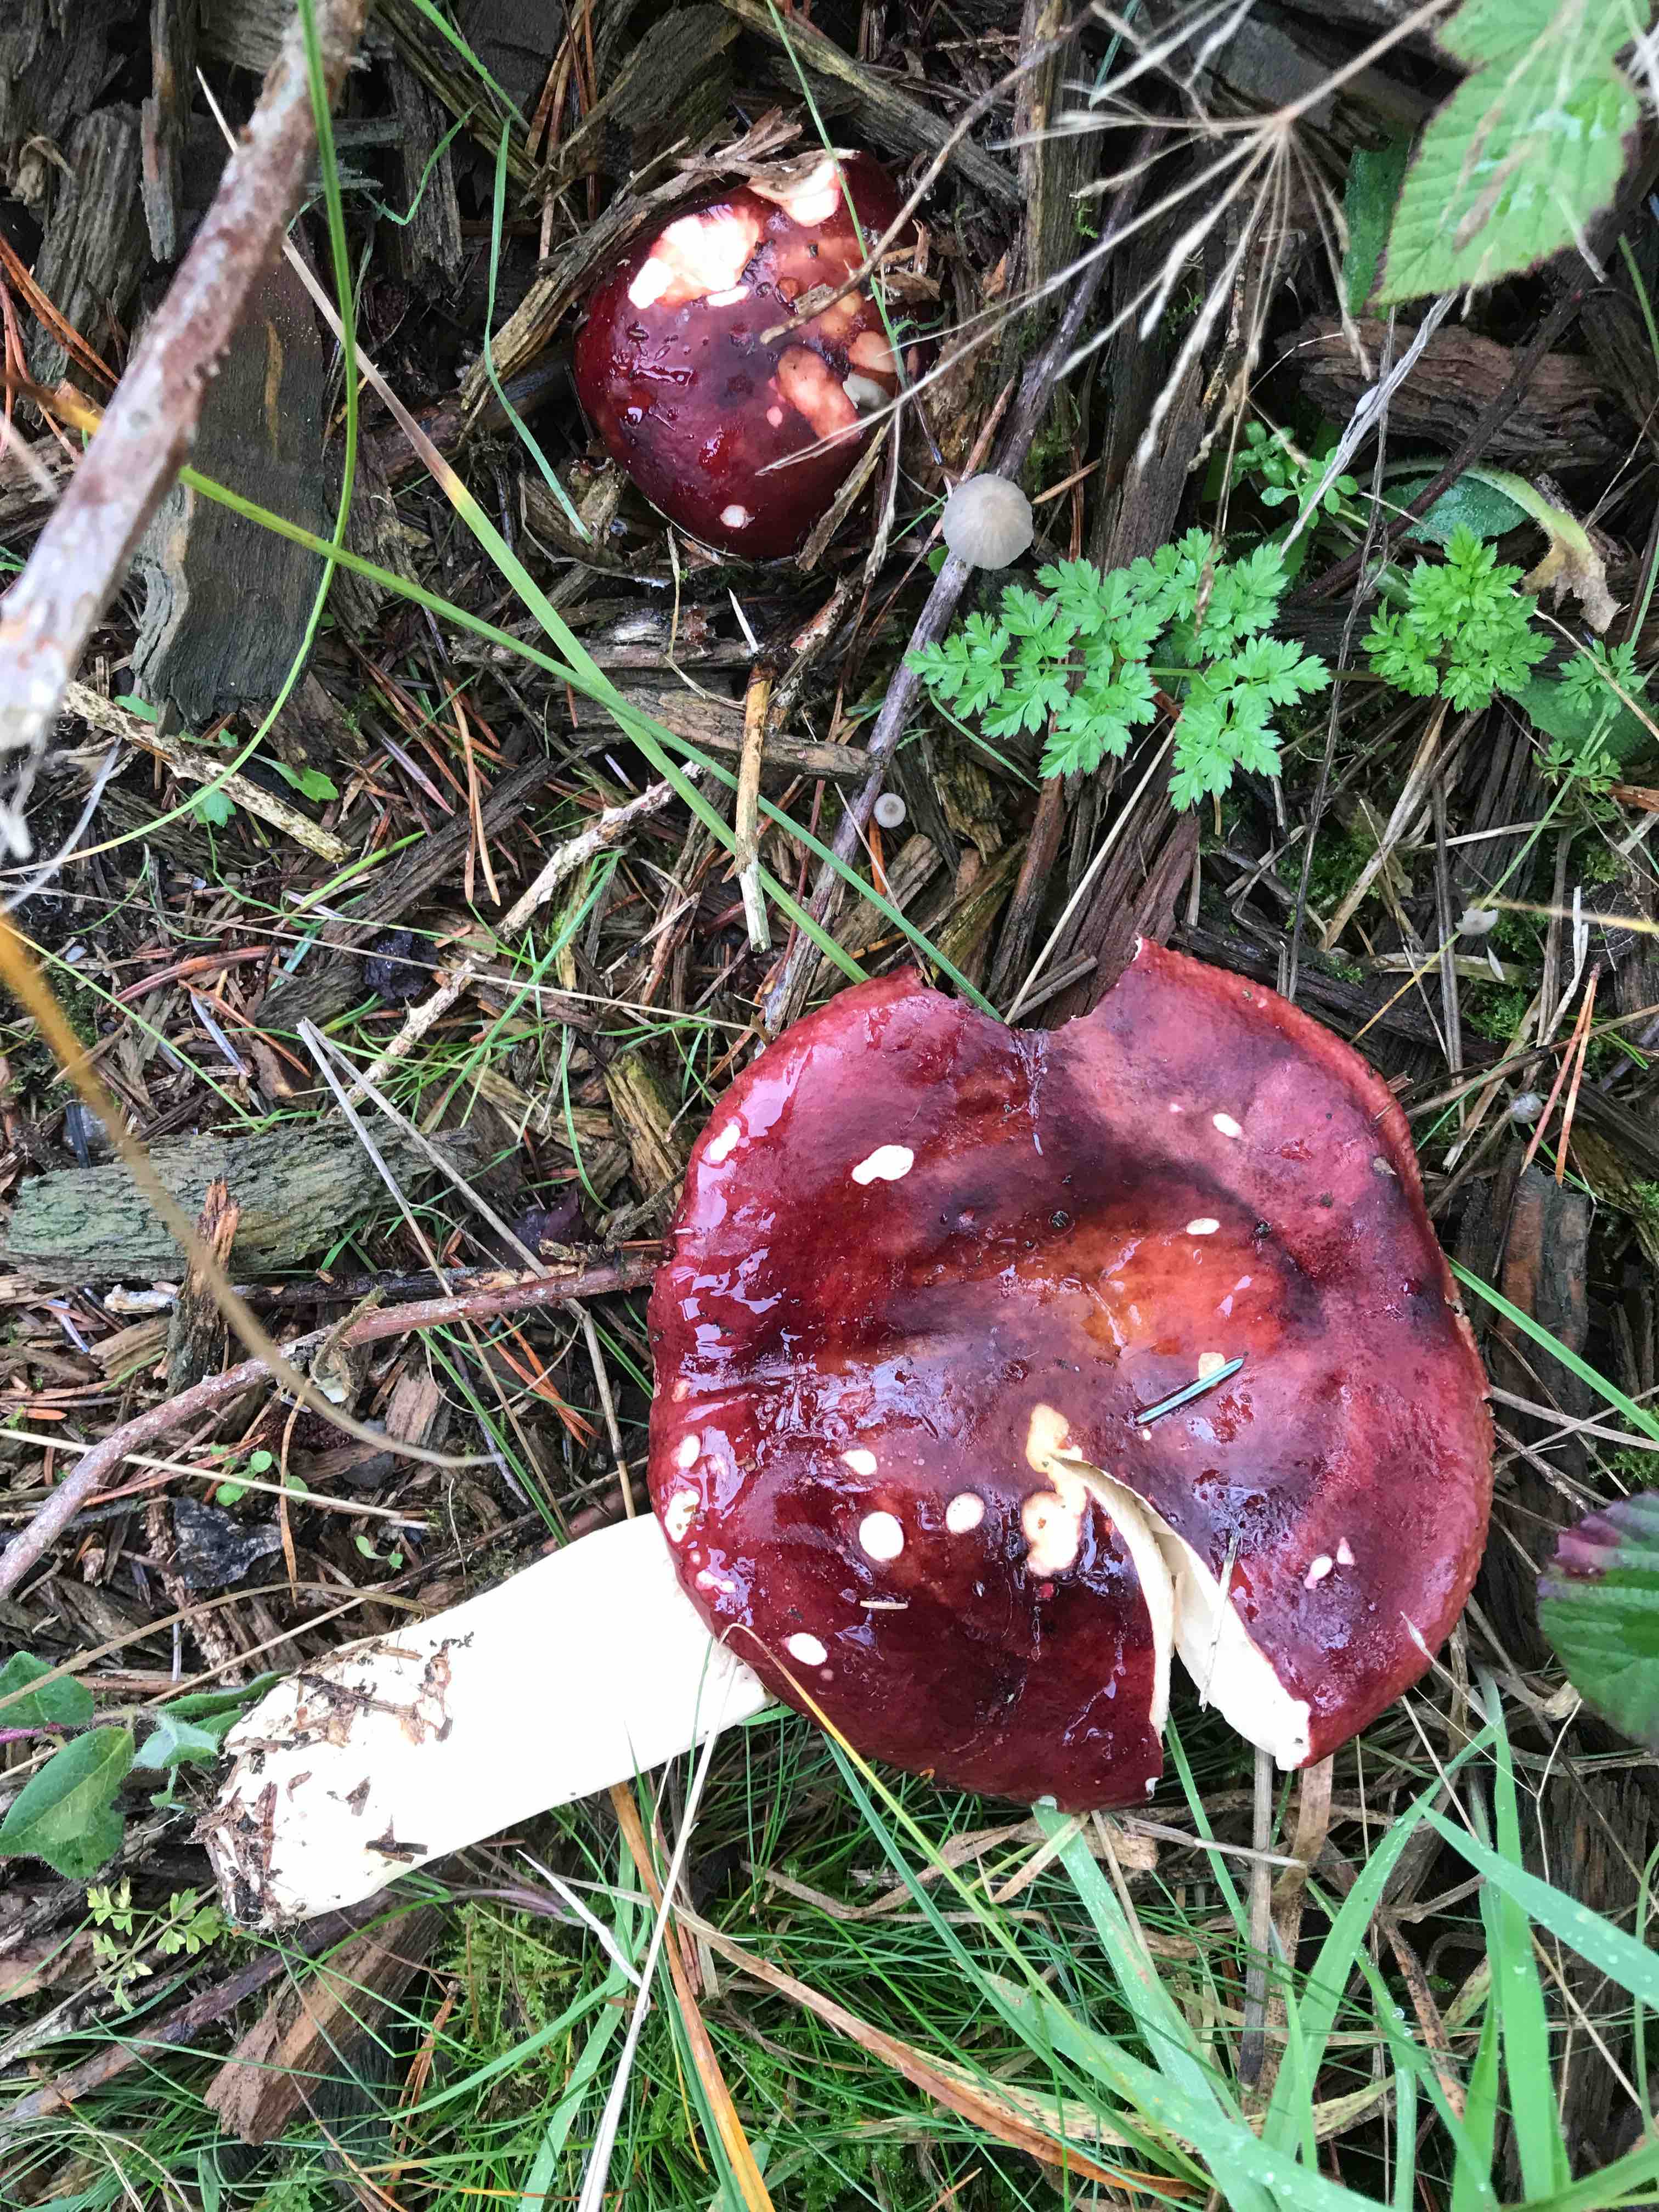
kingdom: Fungi
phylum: Basidiomycota
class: Agaricomycetes
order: Russulales
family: Russulaceae
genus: Russula
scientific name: Russula
